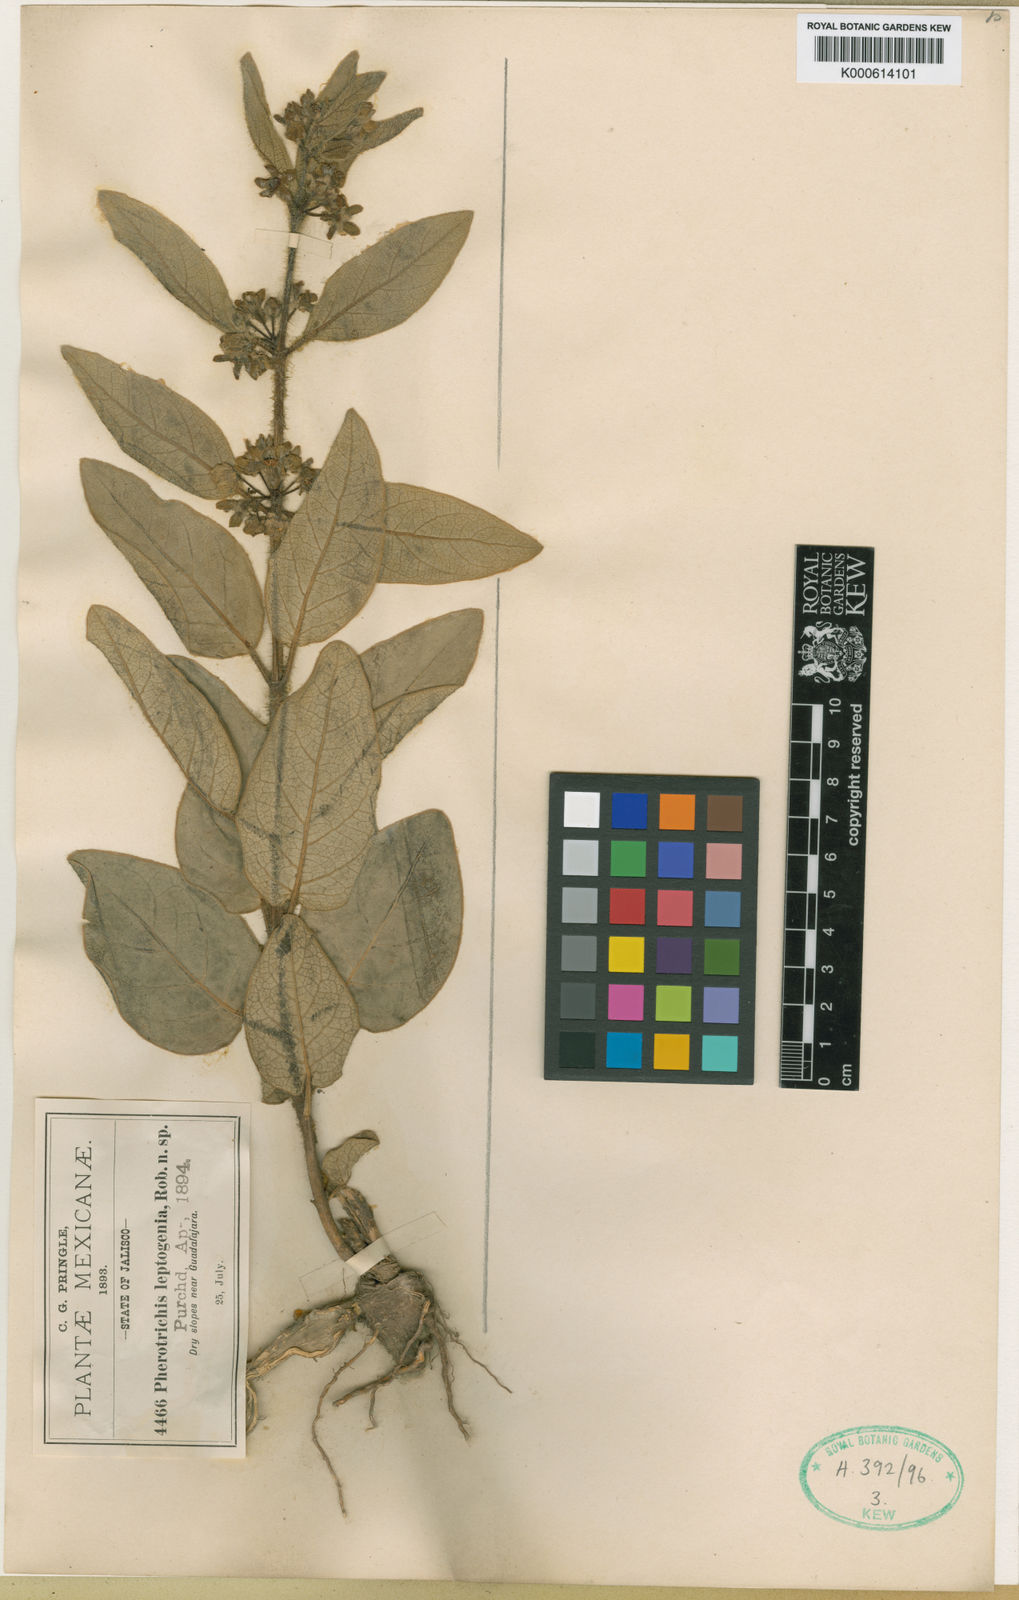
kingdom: Plantae
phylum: Tracheophyta
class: Magnoliopsida
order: Gentianales
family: Apocynaceae
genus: Pherotrichis
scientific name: Pherotrichis leptogenia
